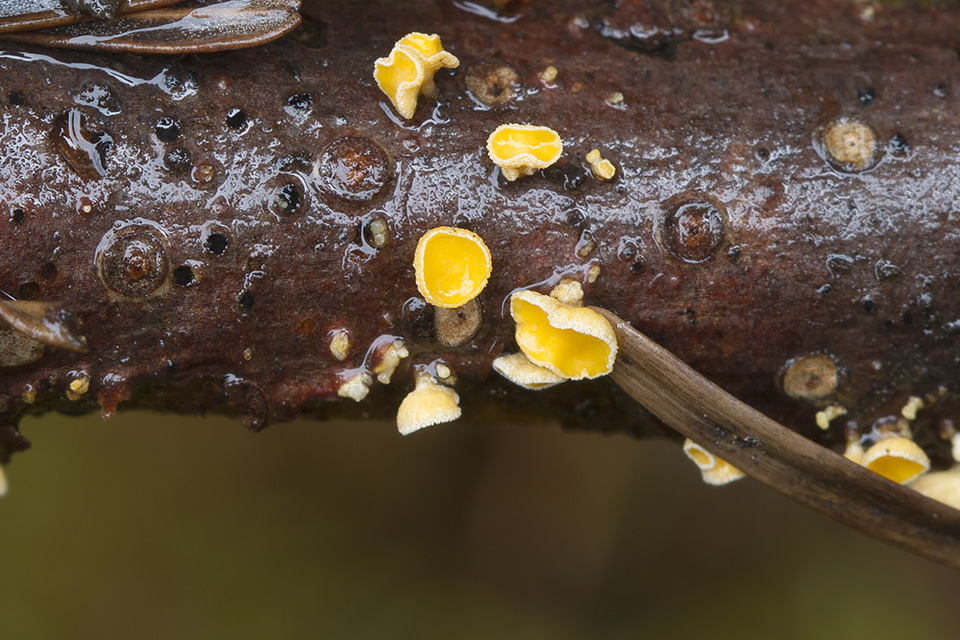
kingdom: Fungi
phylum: Ascomycota
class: Leotiomycetes
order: Helotiales
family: Lachnaceae
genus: Lachnellula
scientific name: Lachnellula calyciformis
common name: ædelgran-frynseskive
